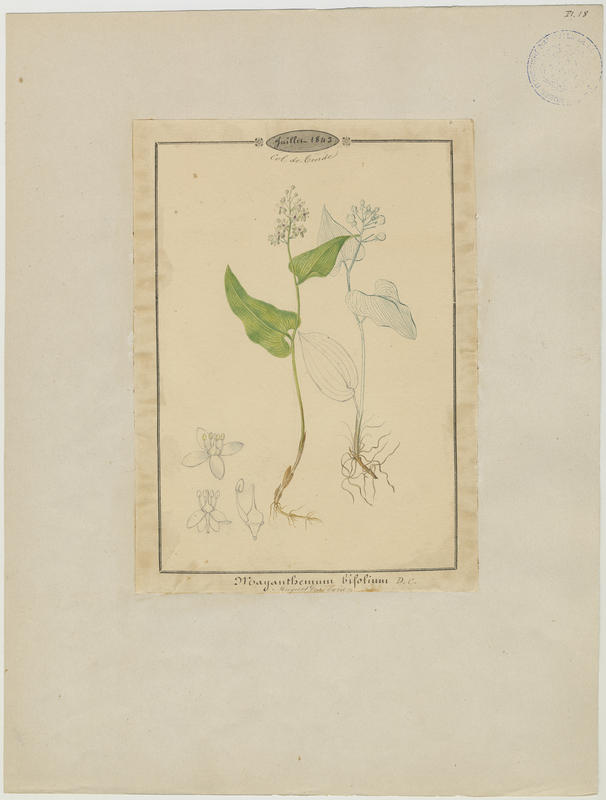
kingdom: Plantae
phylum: Tracheophyta
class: Liliopsida
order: Asparagales
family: Asparagaceae
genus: Maianthemum
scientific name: Maianthemum bifolium
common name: May lily
